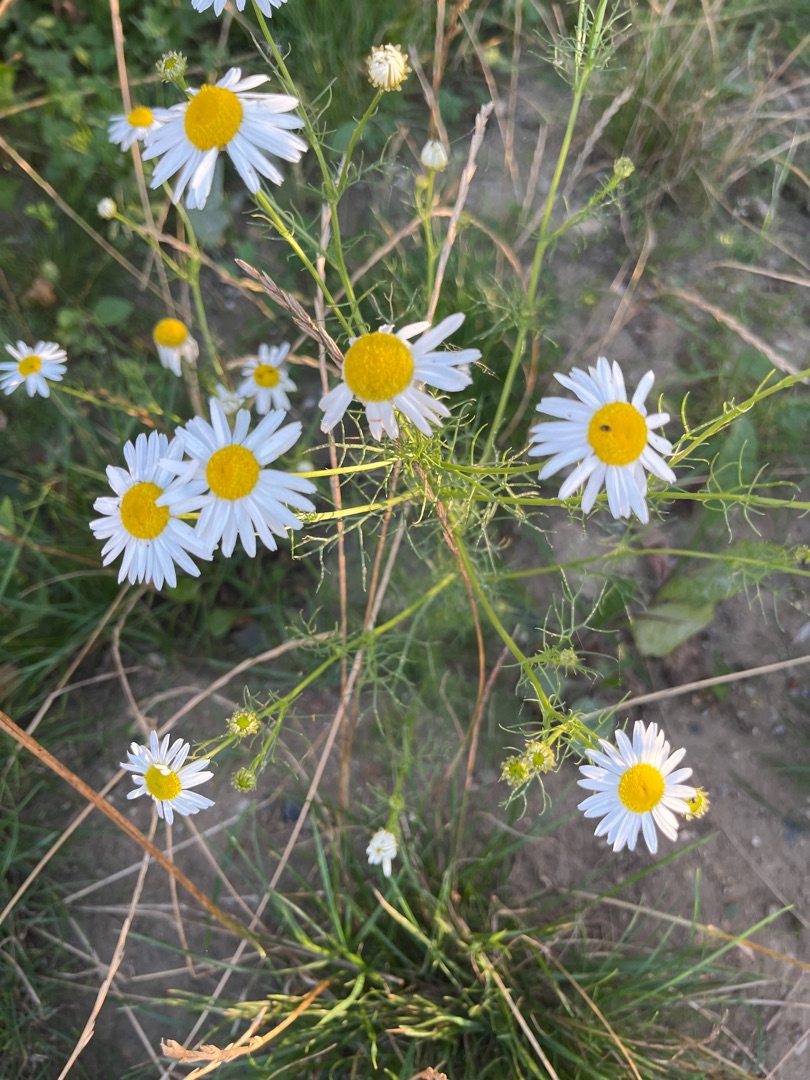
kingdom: Plantae
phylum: Tracheophyta
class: Magnoliopsida
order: Asterales
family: Asteraceae
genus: Tripleurospermum
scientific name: Tripleurospermum inodorum
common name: Lugtløs kamille
